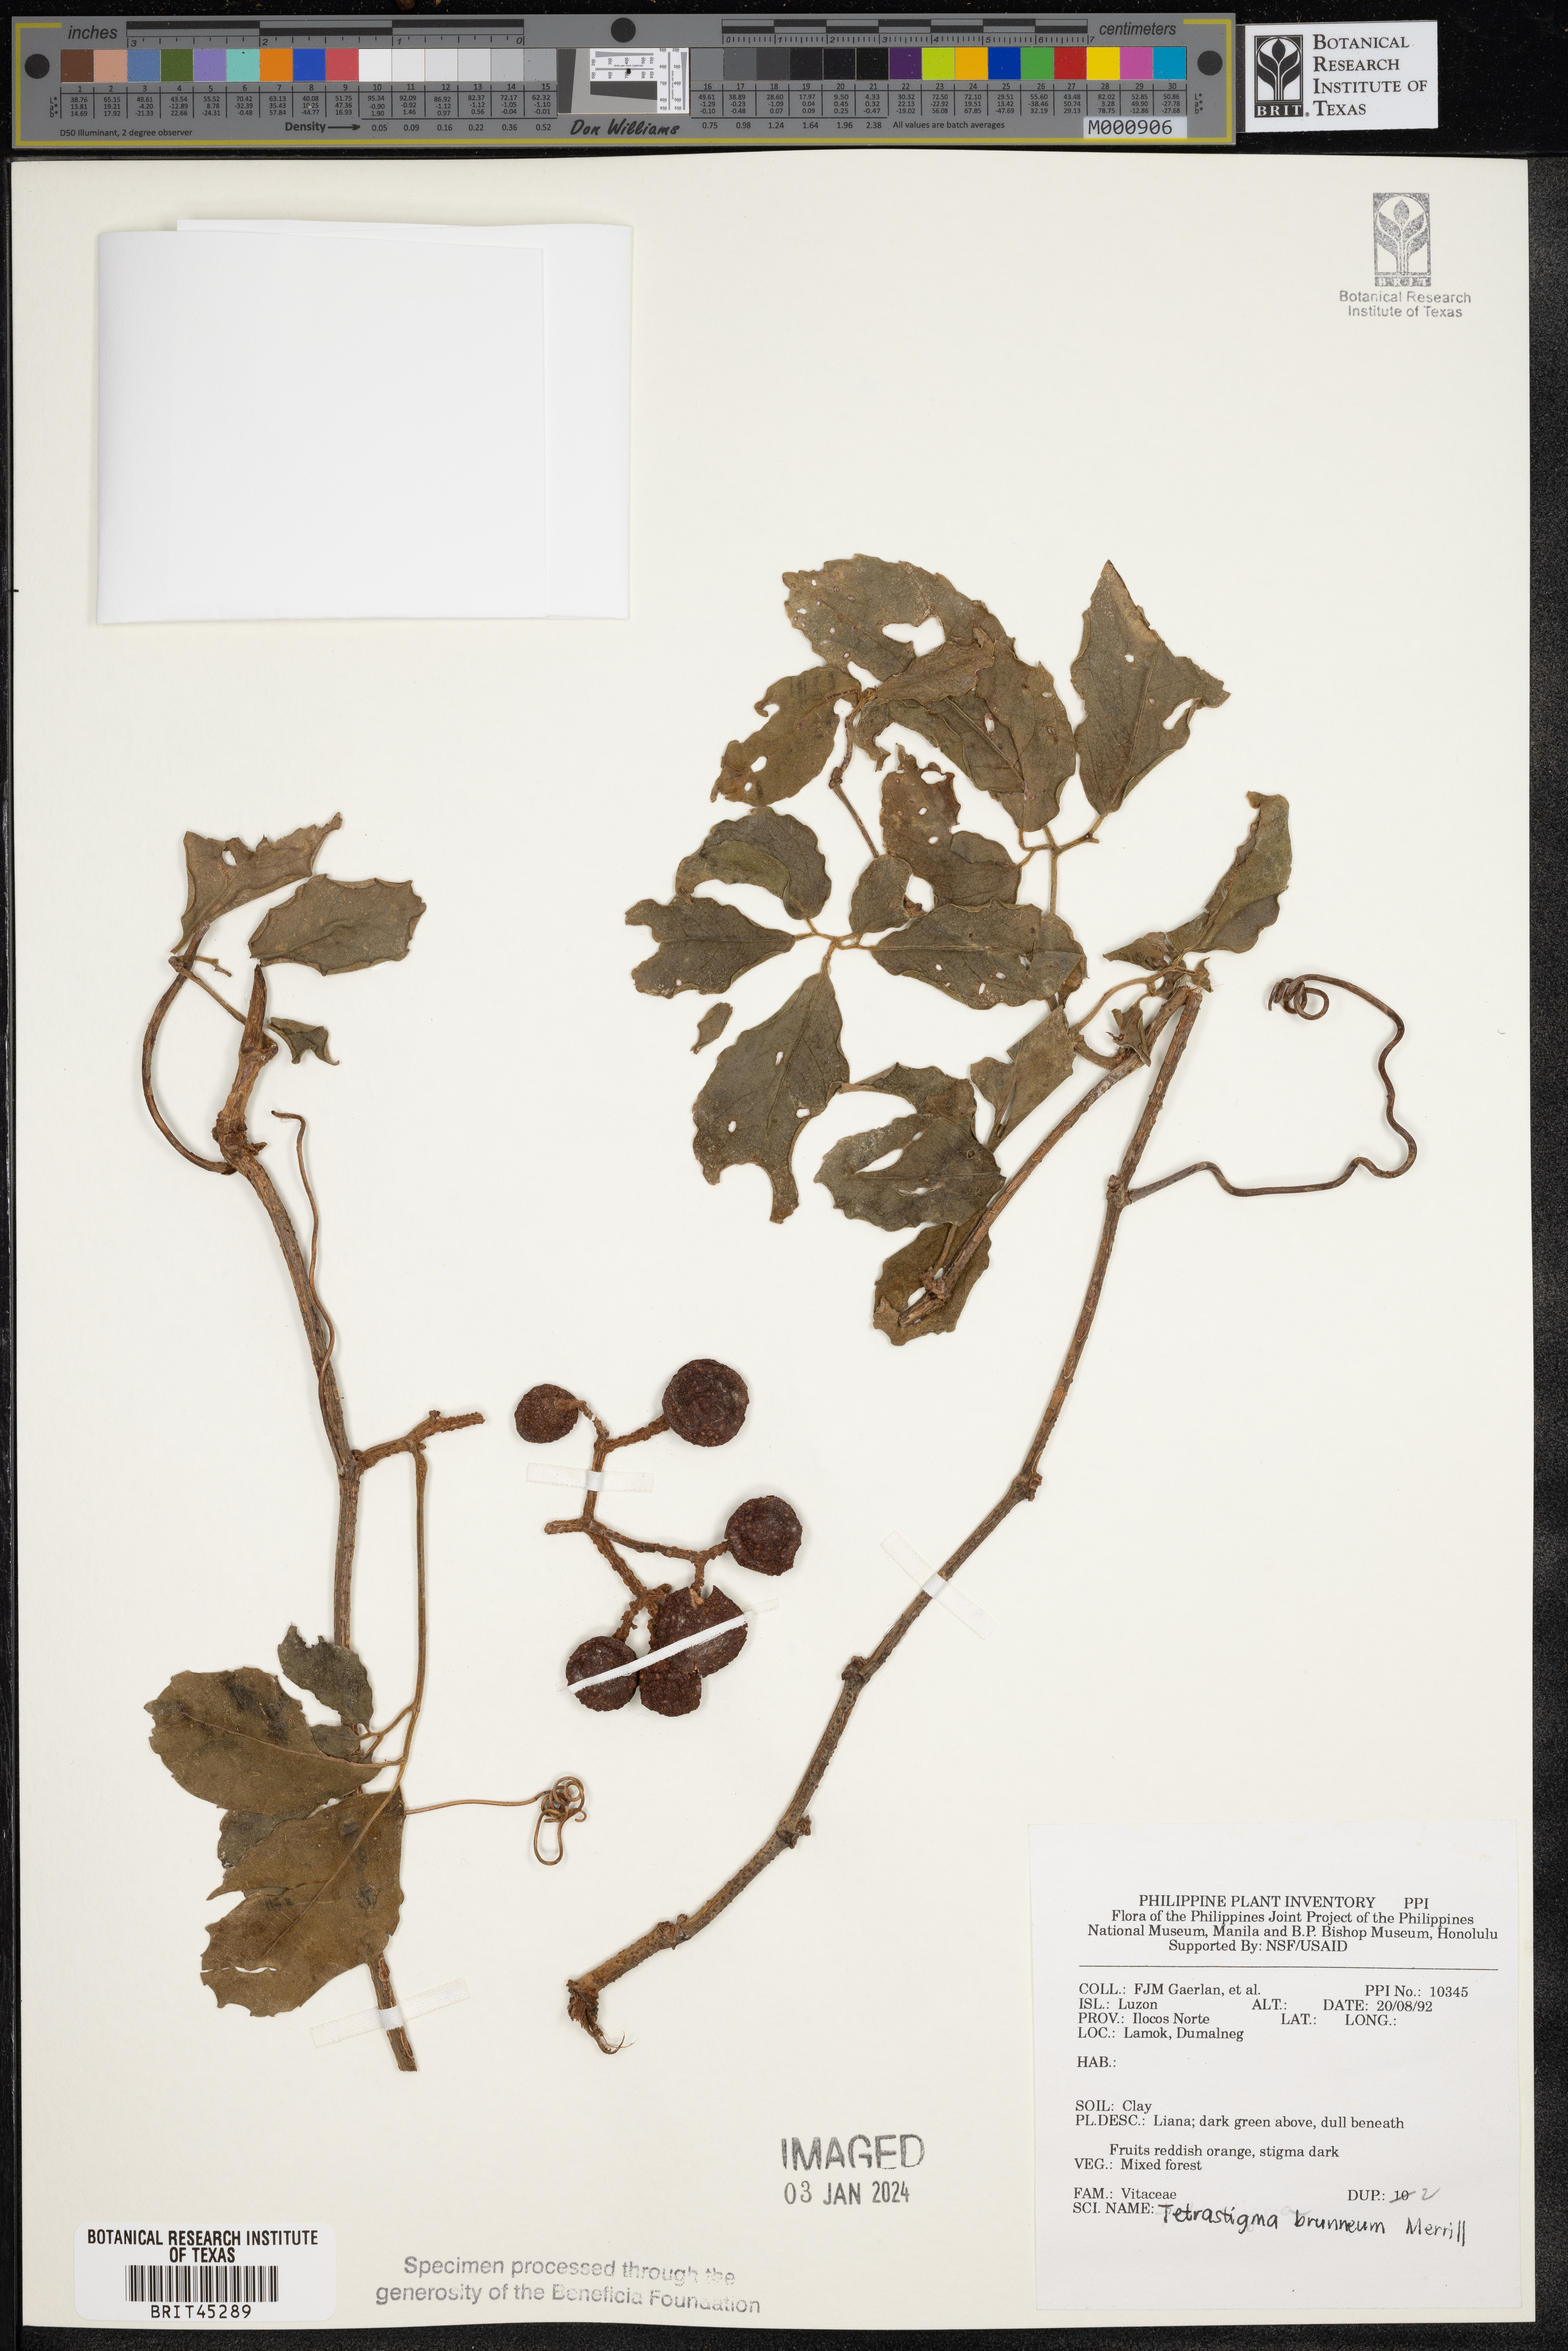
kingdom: Plantae
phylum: Tracheophyta
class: Magnoliopsida
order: Vitales
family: Vitaceae
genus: Tetrastigma
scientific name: Tetrastigma brunneum
